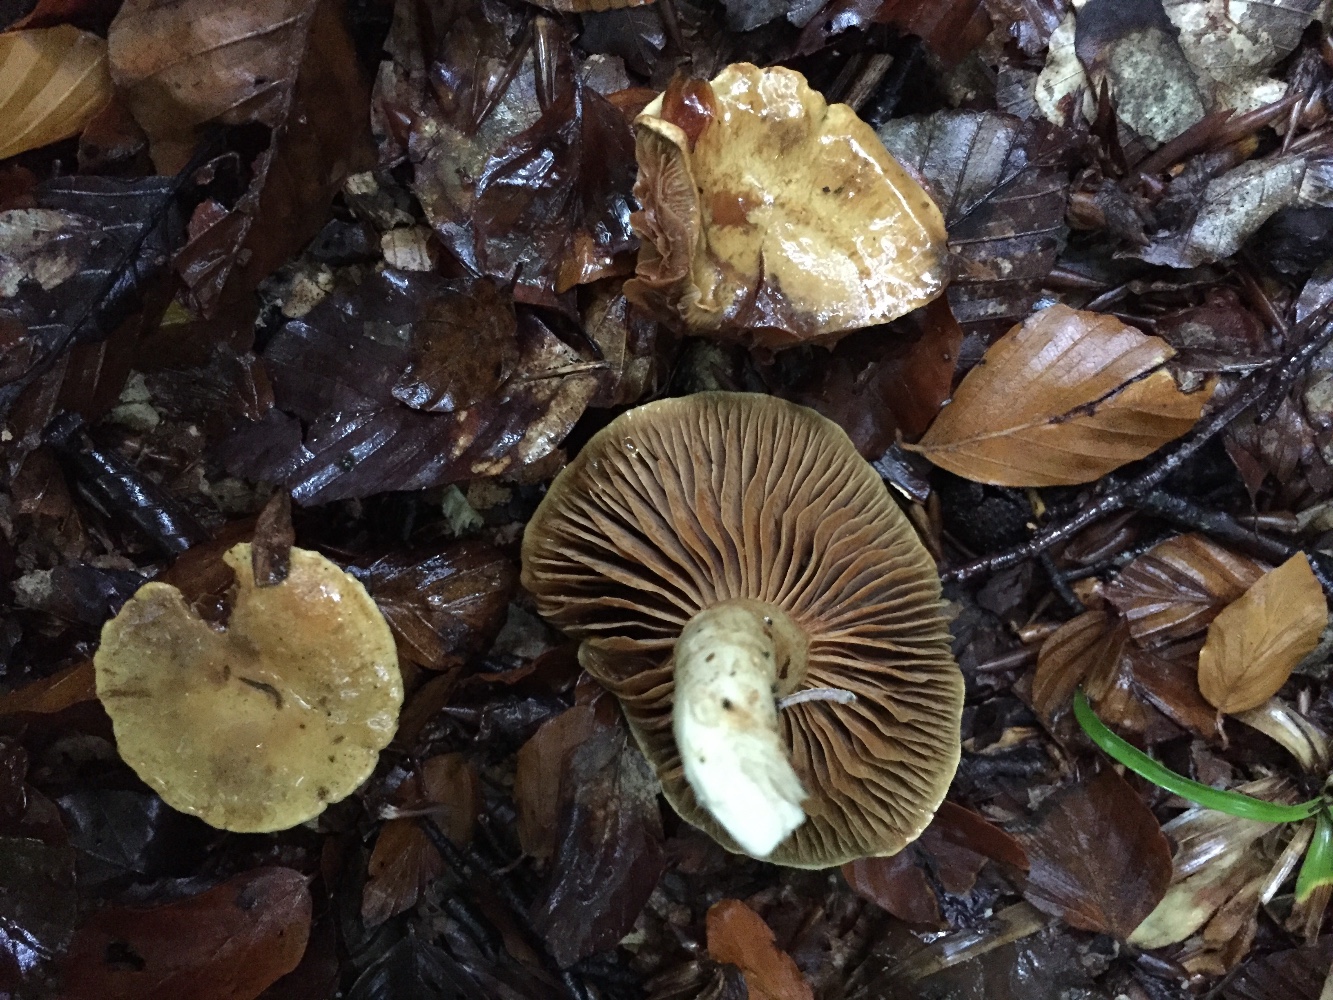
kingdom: Fungi
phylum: Basidiomycota
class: Agaricomycetes
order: Agaricales
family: Cortinariaceae
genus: Cortinarius
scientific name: Cortinarius subtortus
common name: olivengul slørhat
